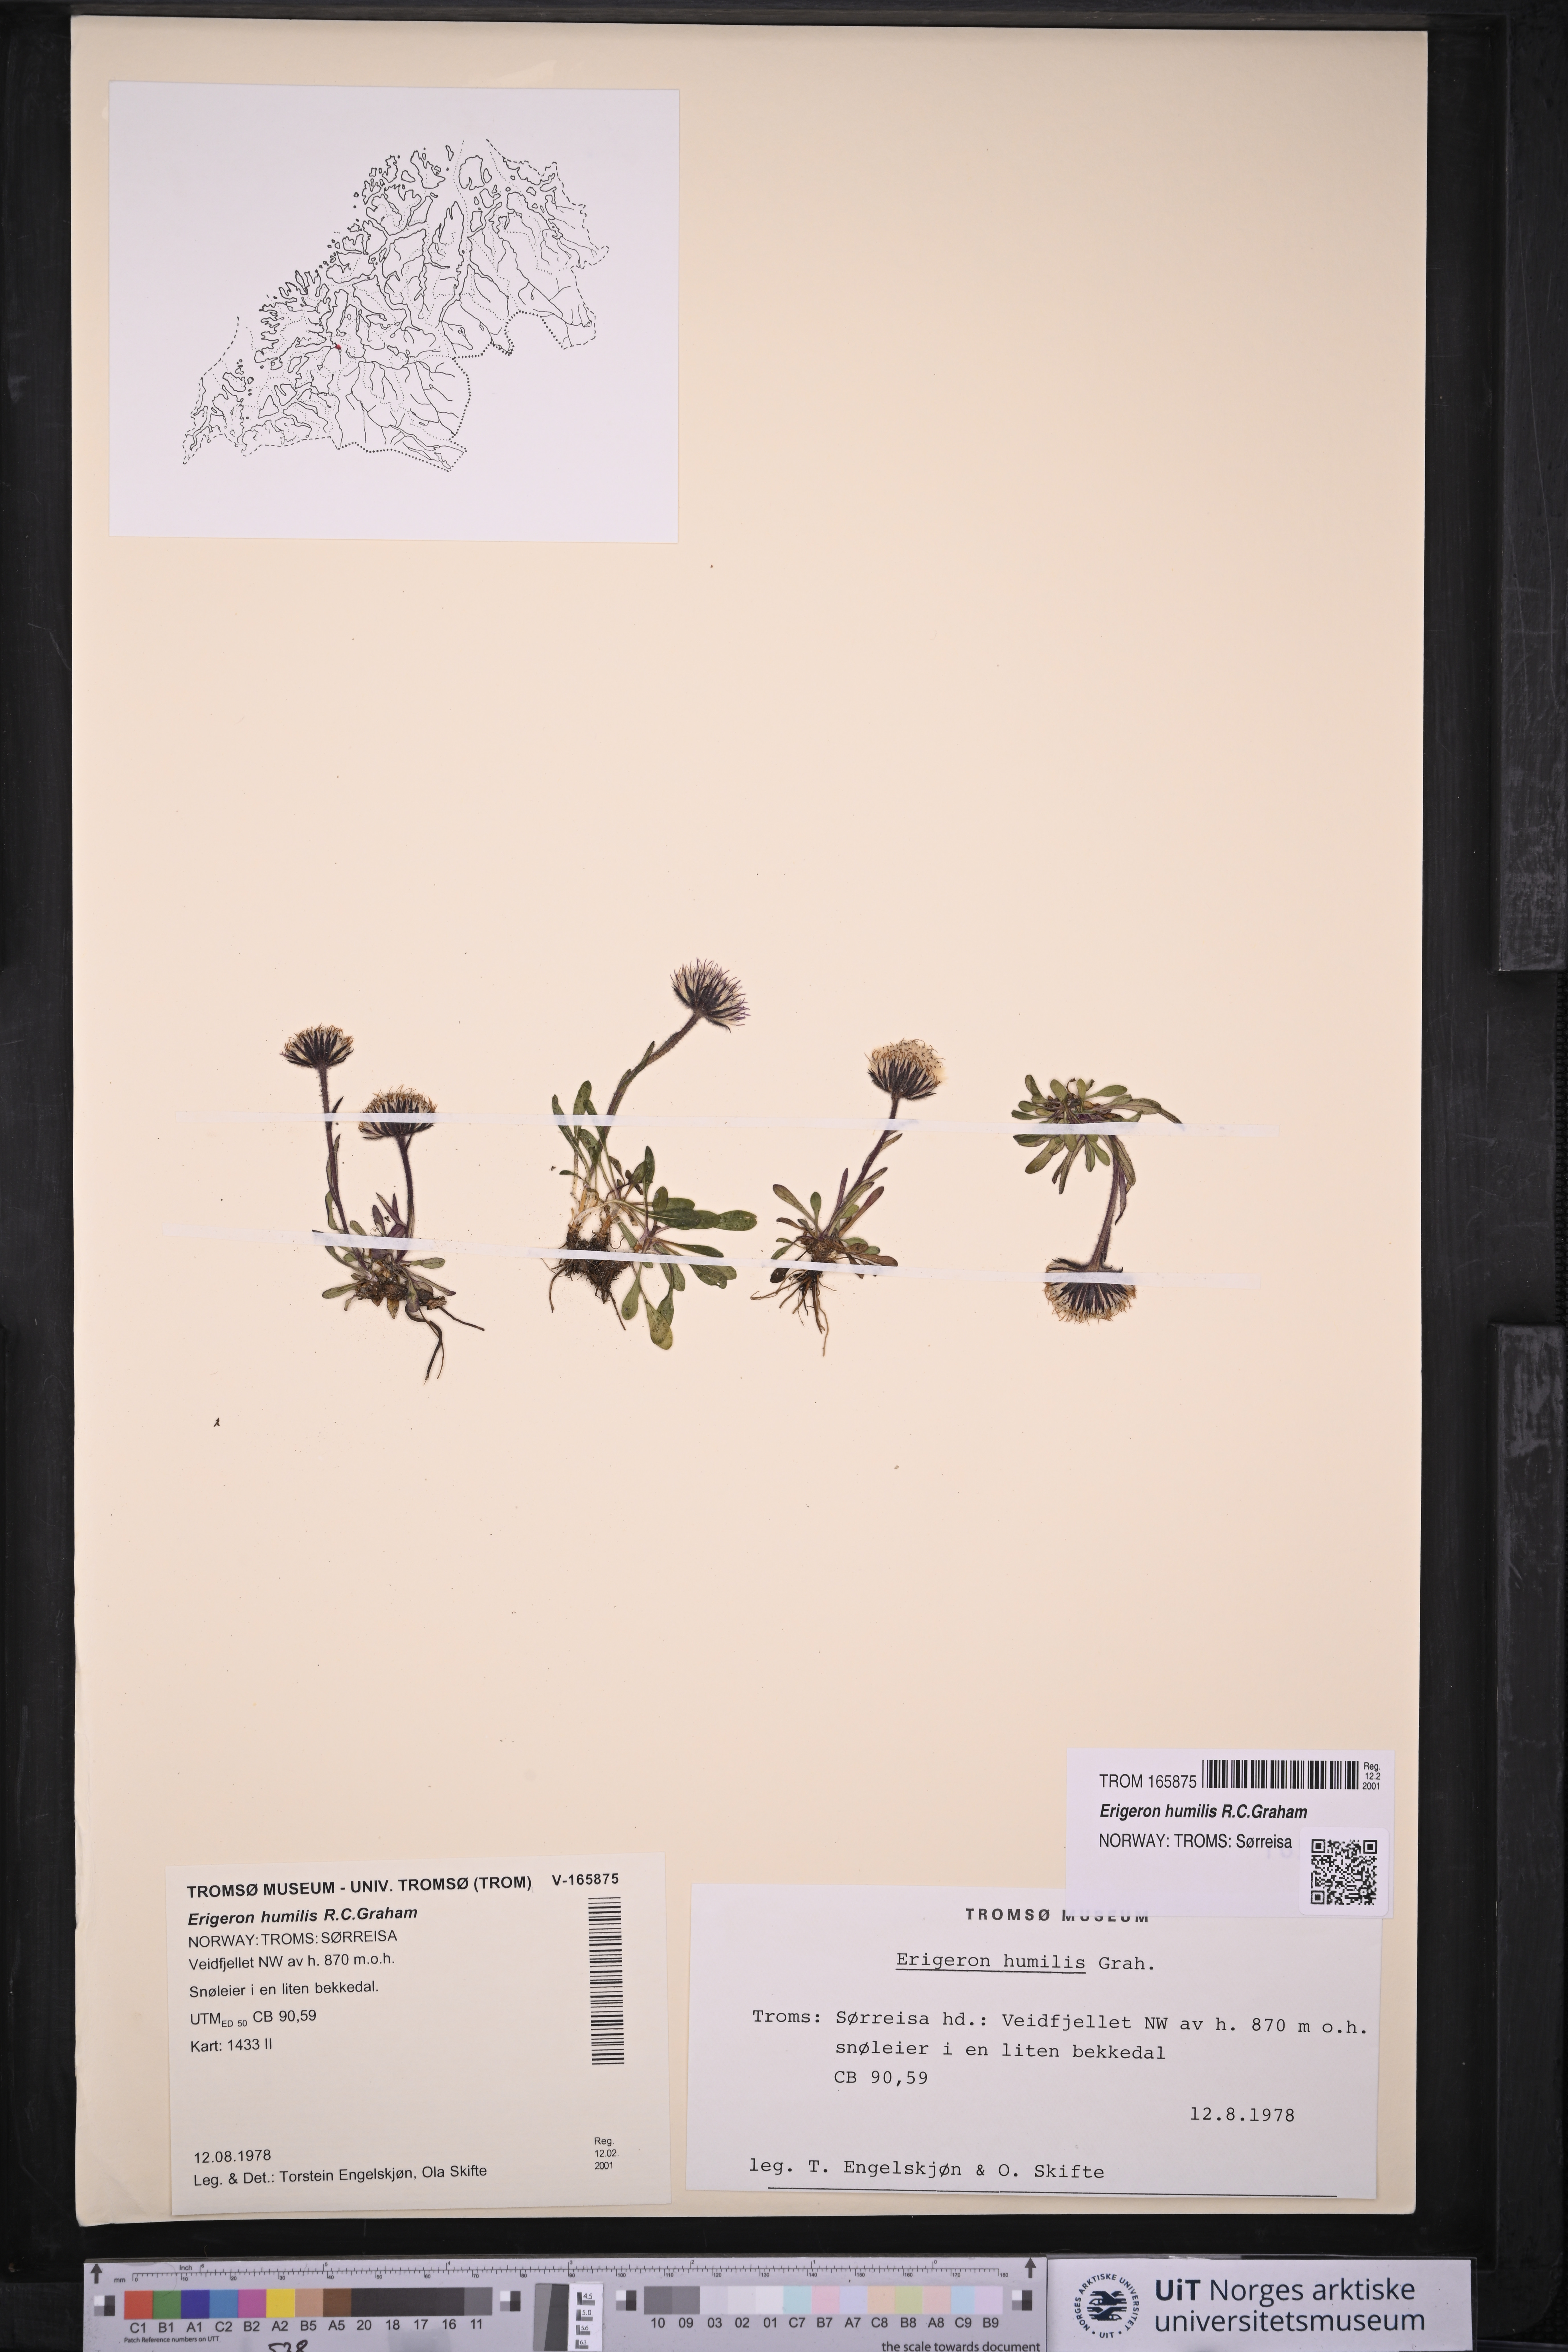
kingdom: Plantae
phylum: Tracheophyta
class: Magnoliopsida
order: Asterales
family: Asteraceae
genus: Erigeron
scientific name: Erigeron humilis
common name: Arctic-alpine fleabane
